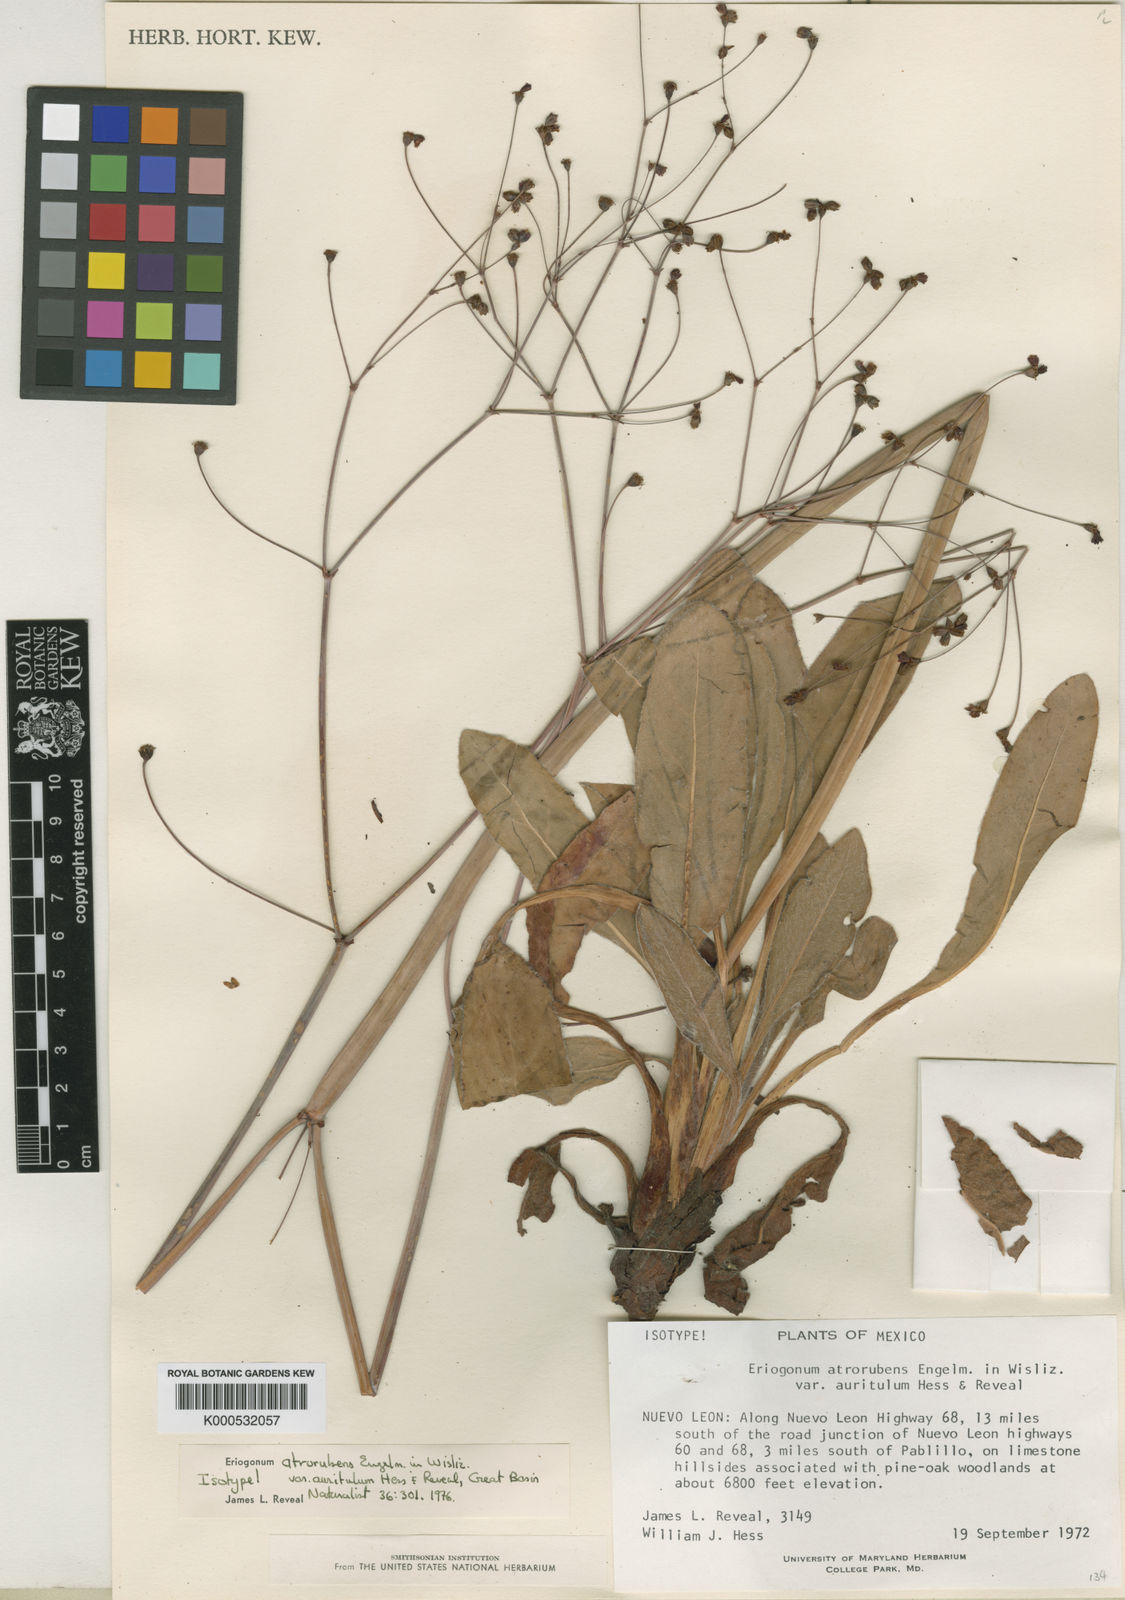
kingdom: Plantae
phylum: Tracheophyta
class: Magnoliopsida
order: Caryophyllales
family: Polygonaceae
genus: Eriogonum
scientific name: Eriogonum atrorubens
